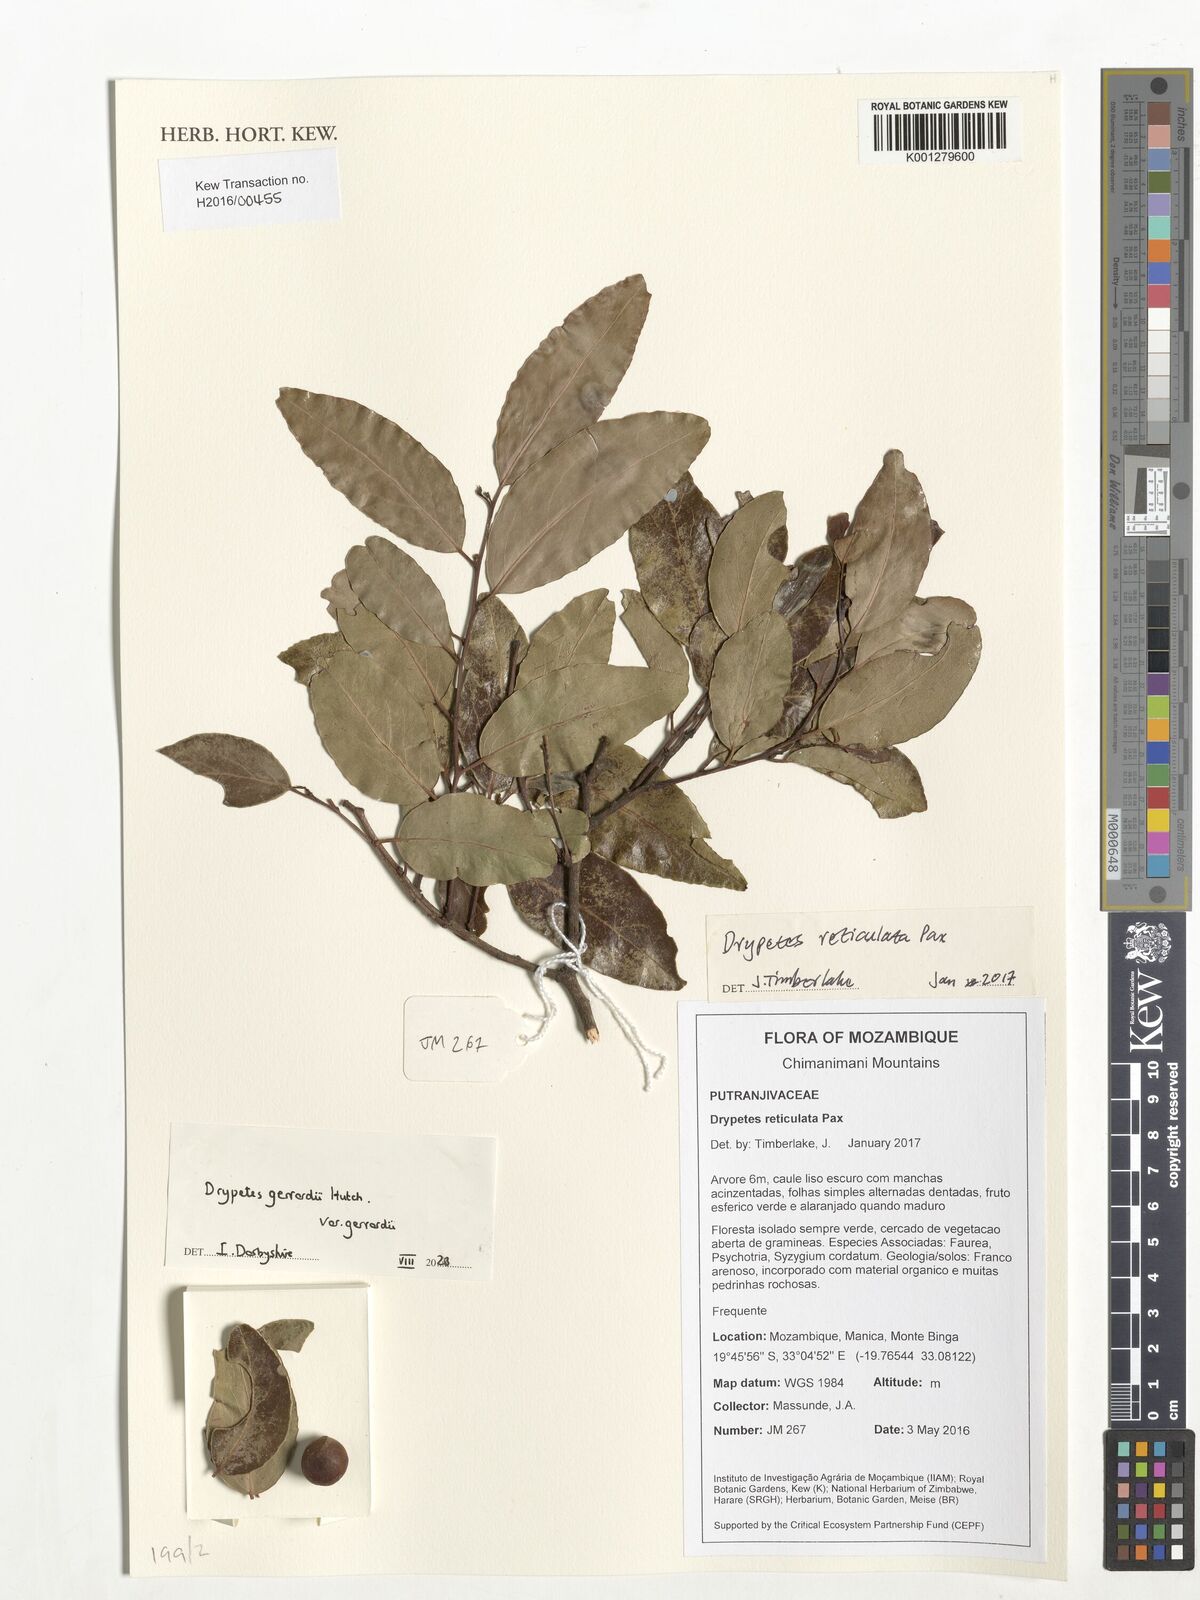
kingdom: Plantae
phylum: Tracheophyta
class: Magnoliopsida
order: Malpighiales
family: Putranjivaceae
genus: Drypetes
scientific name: Drypetes gerrardii
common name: Forest ironplum
